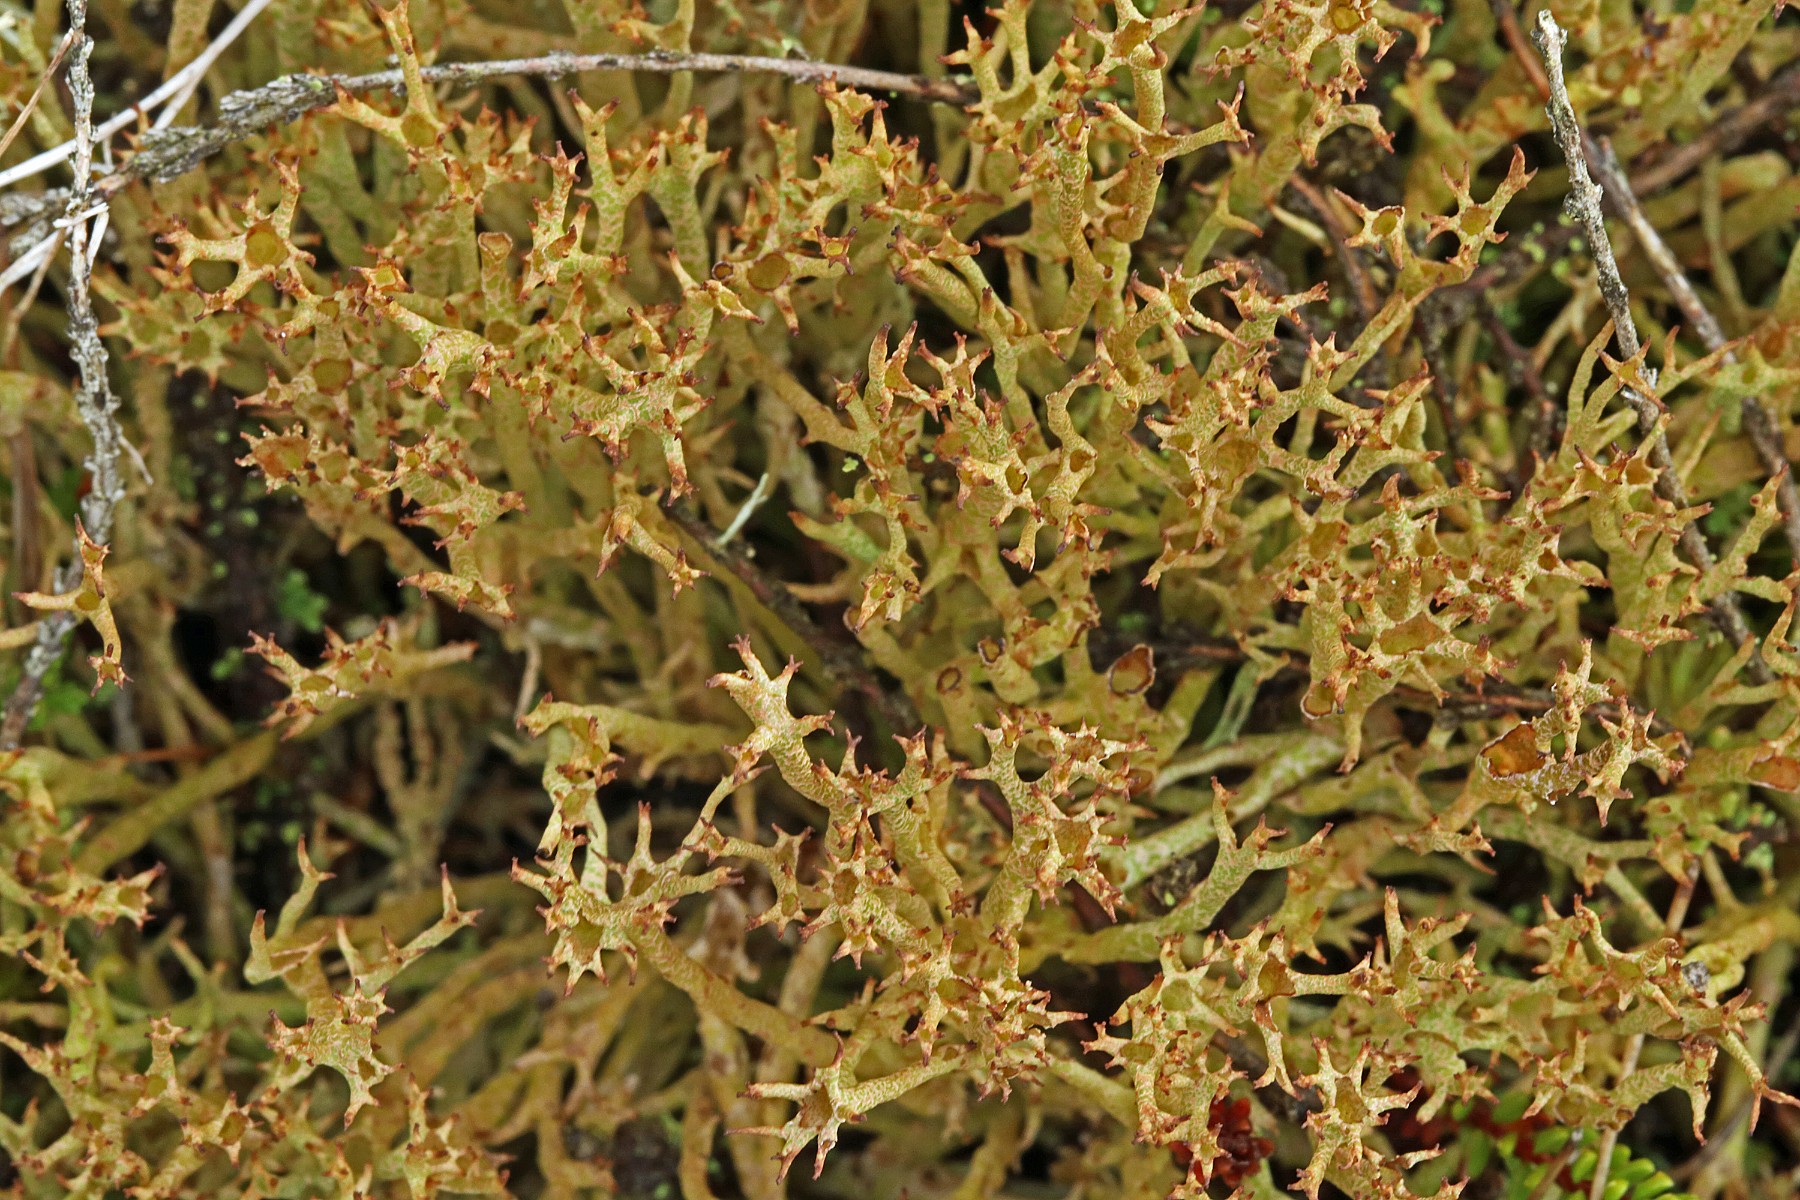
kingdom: Fungi
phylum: Ascomycota
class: Lecanoromycetes
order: Lecanorales
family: Cladoniaceae
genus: Cladonia
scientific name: Cladonia crispata
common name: takket bægerlav
